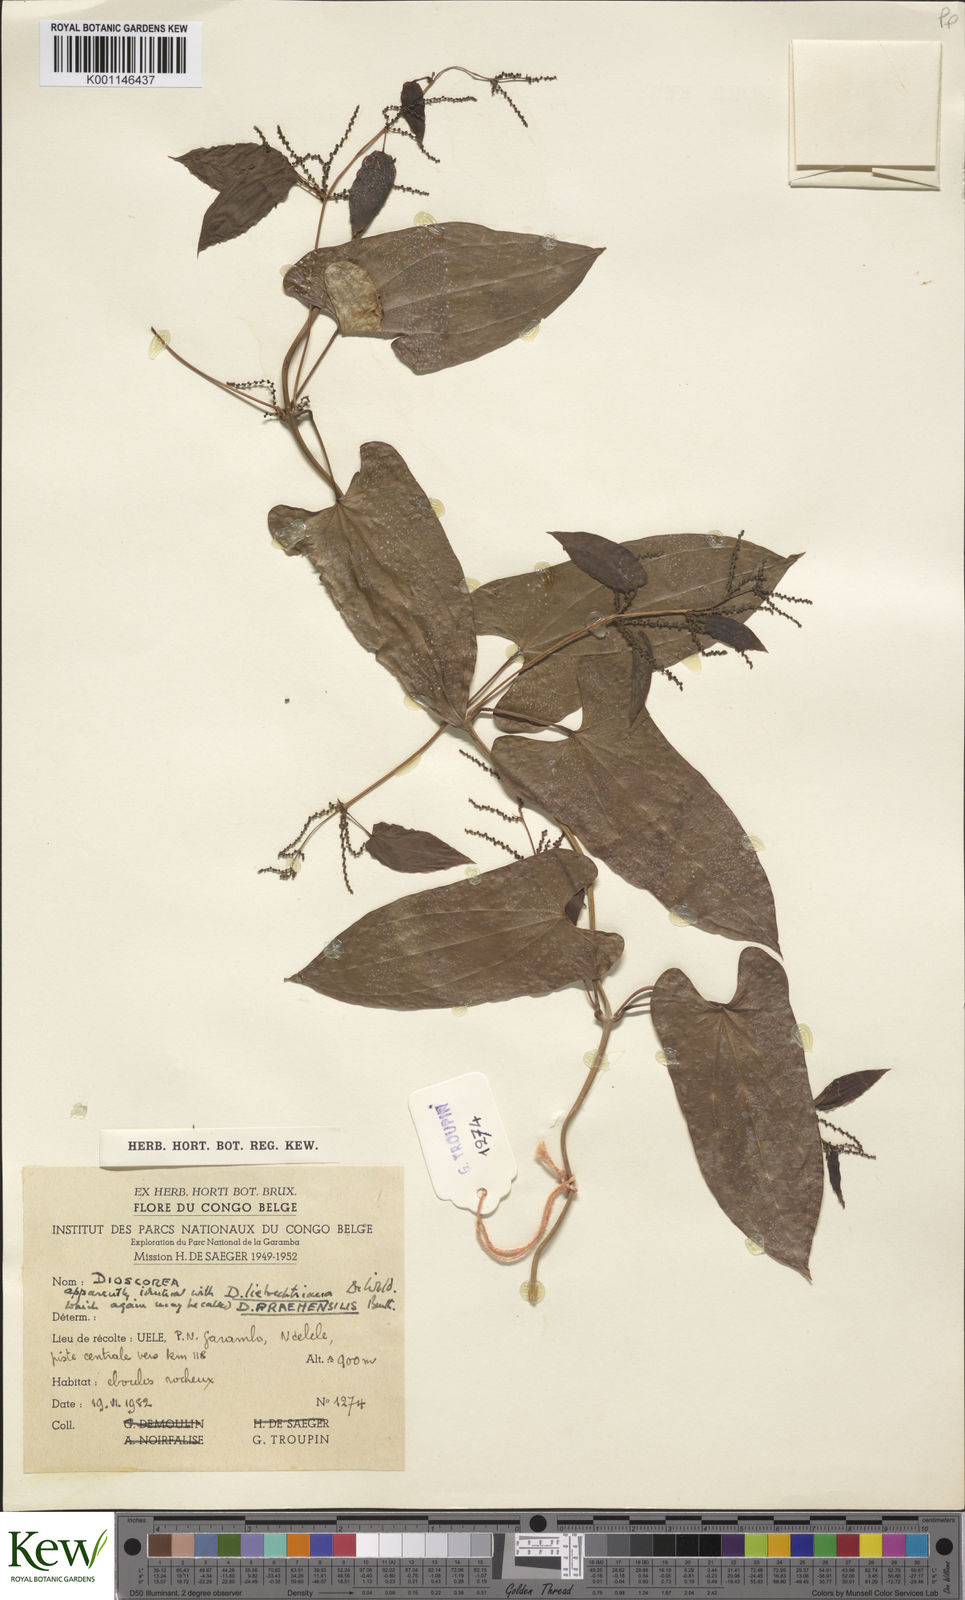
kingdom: Plantae
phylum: Tracheophyta
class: Liliopsida
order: Dioscoreales
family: Dioscoreaceae
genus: Dioscorea
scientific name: Dioscorea praehensilis
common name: Bush yam
